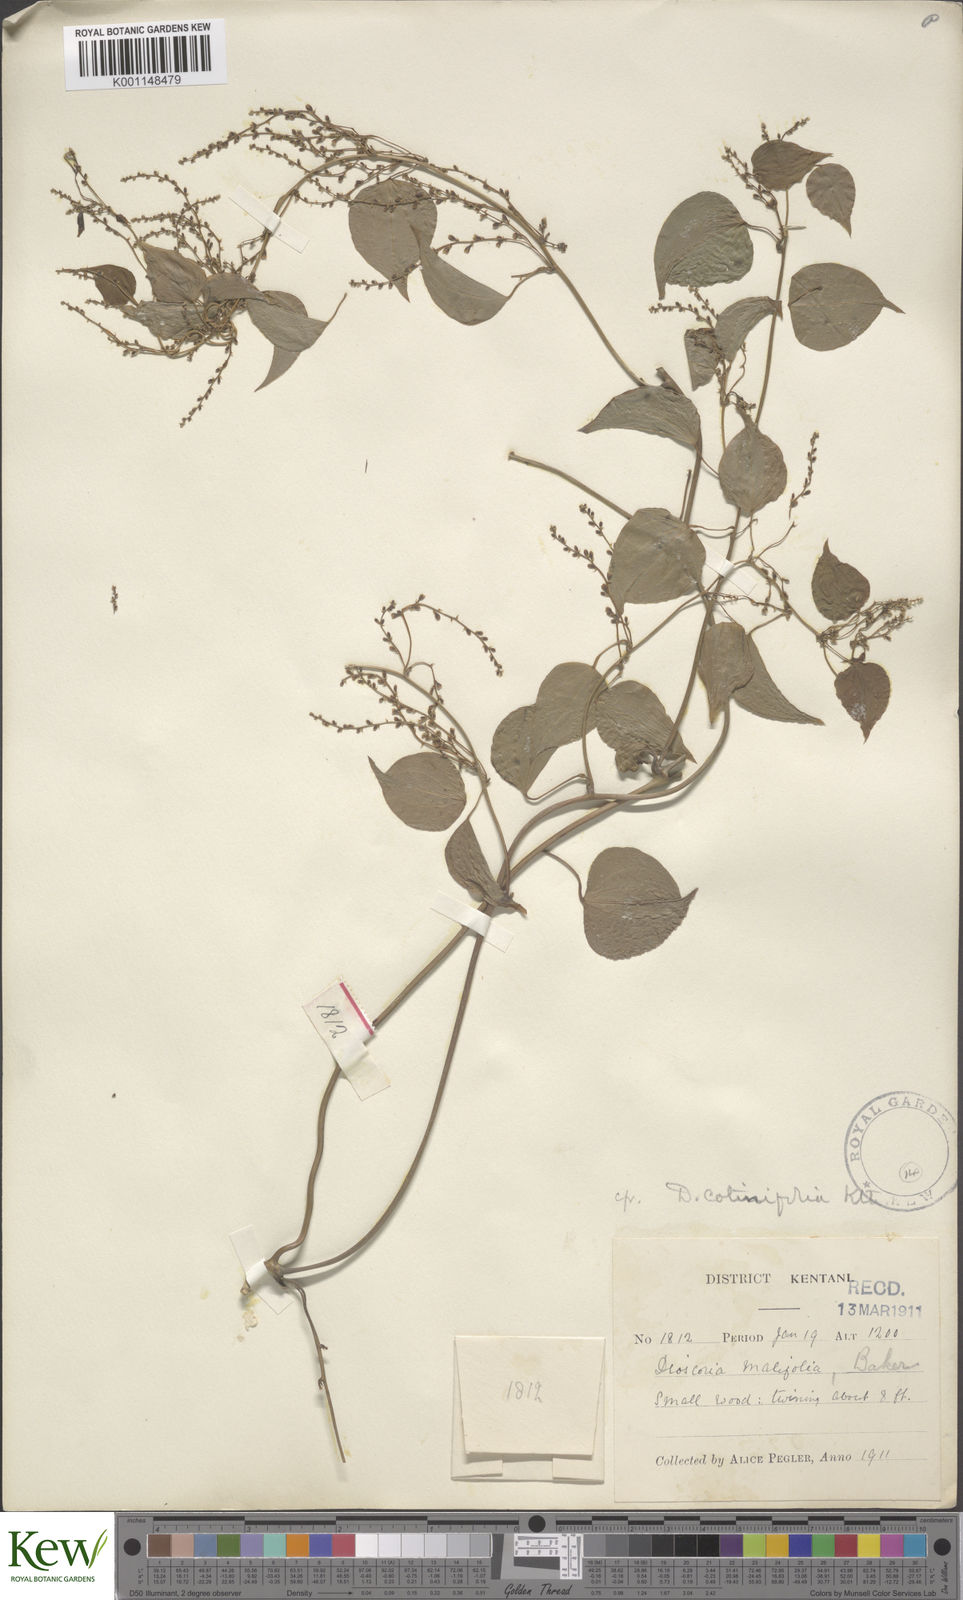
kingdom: Plantae
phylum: Tracheophyta
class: Liliopsida
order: Dioscoreales
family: Dioscoreaceae
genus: Dioscorea
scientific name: Dioscorea cotinifolia
